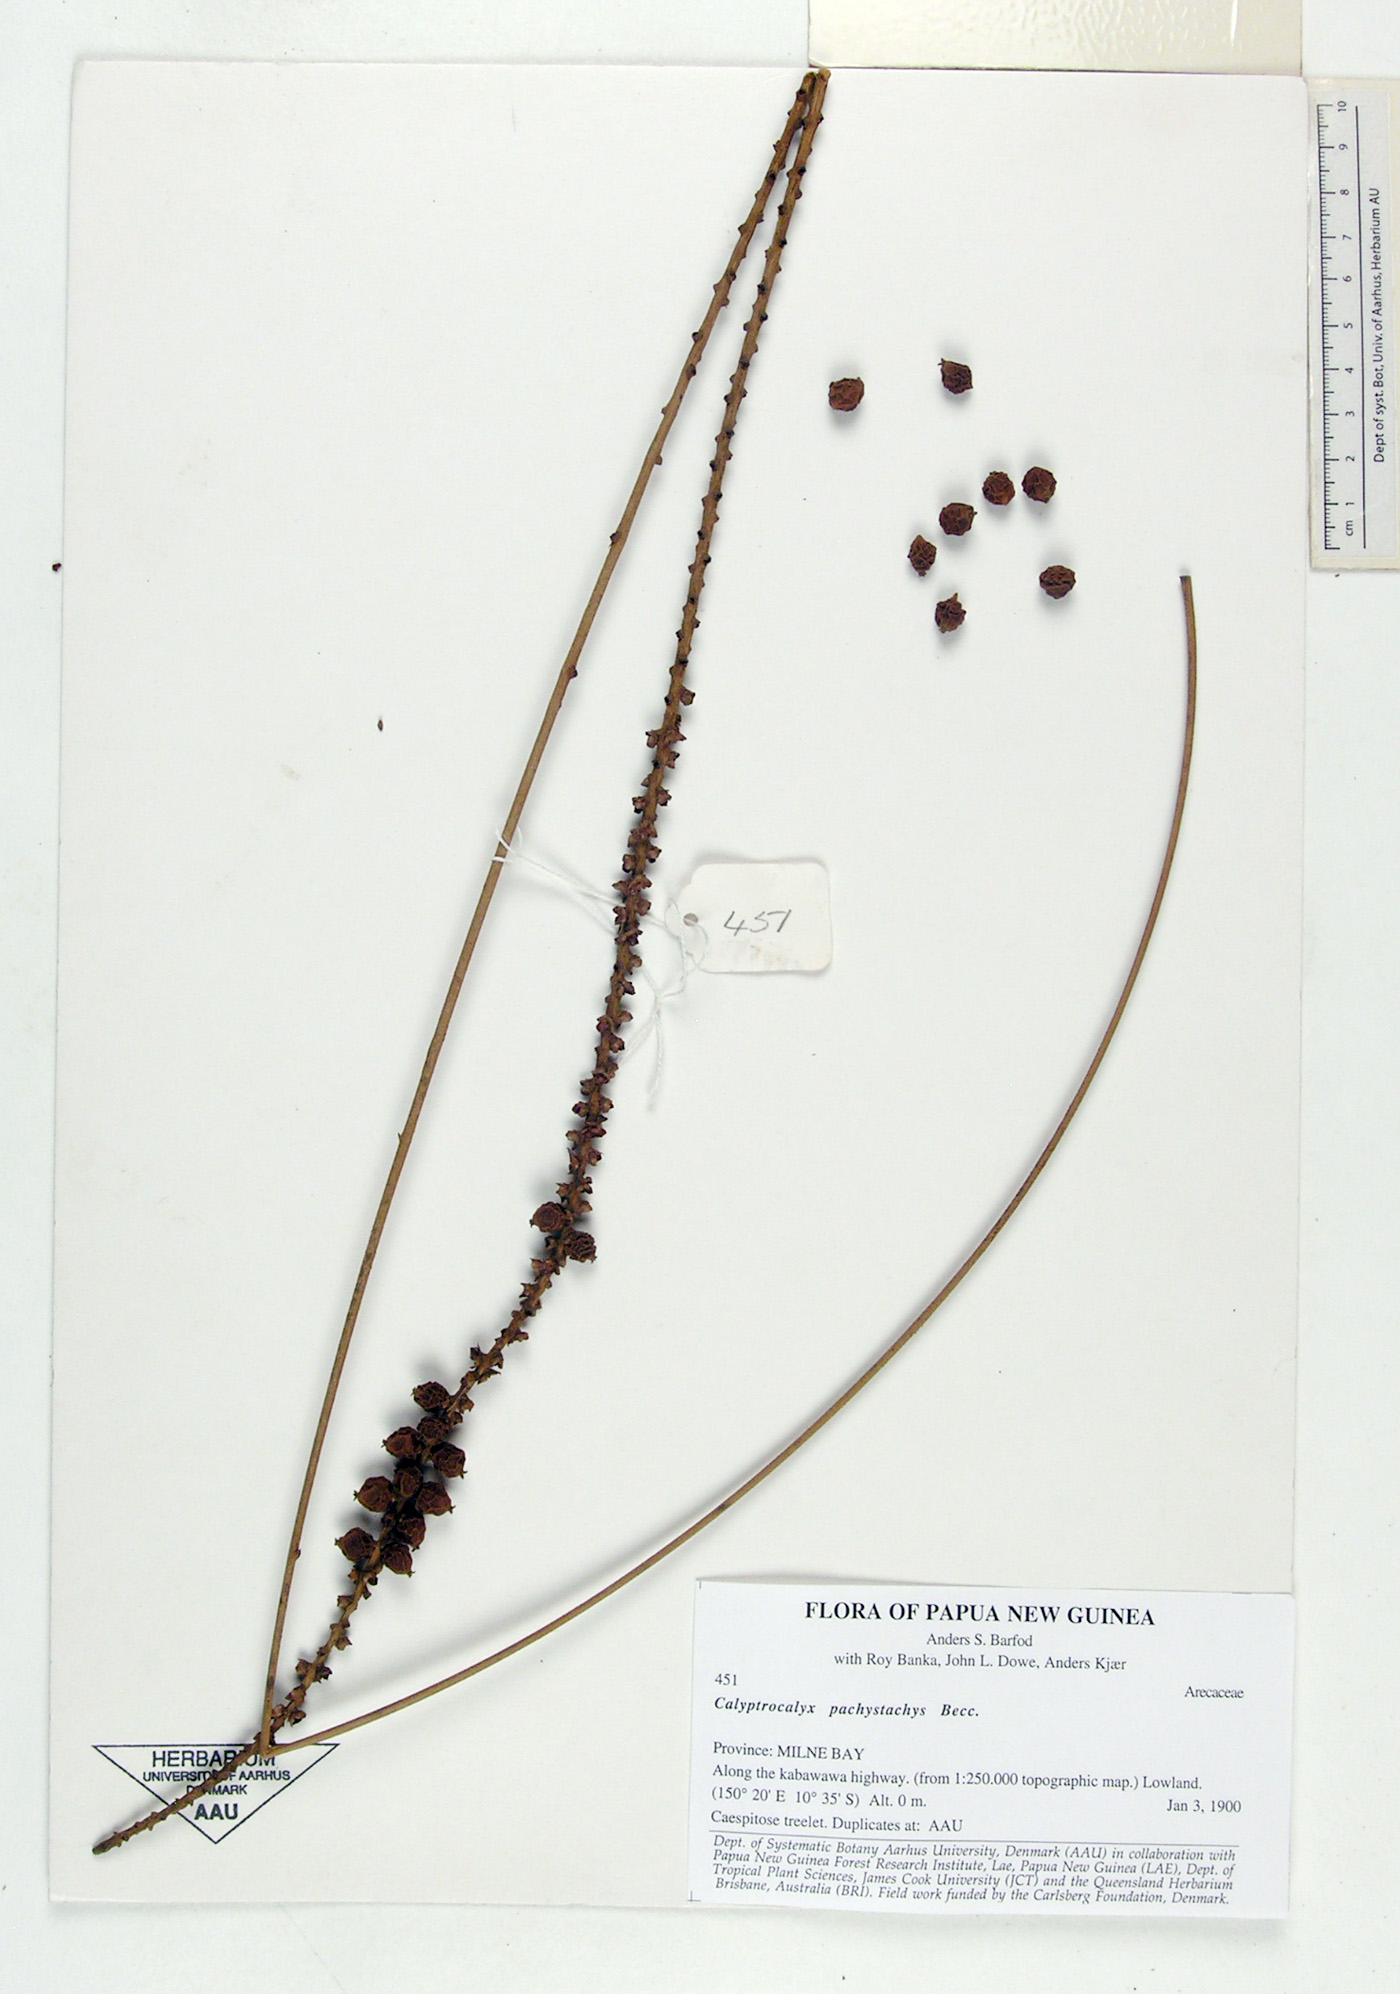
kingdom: Plantae
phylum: Tracheophyta
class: Liliopsida
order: Arecales
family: Arecaceae
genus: Calyptrocalyx
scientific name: Calyptrocalyx pachystachys
